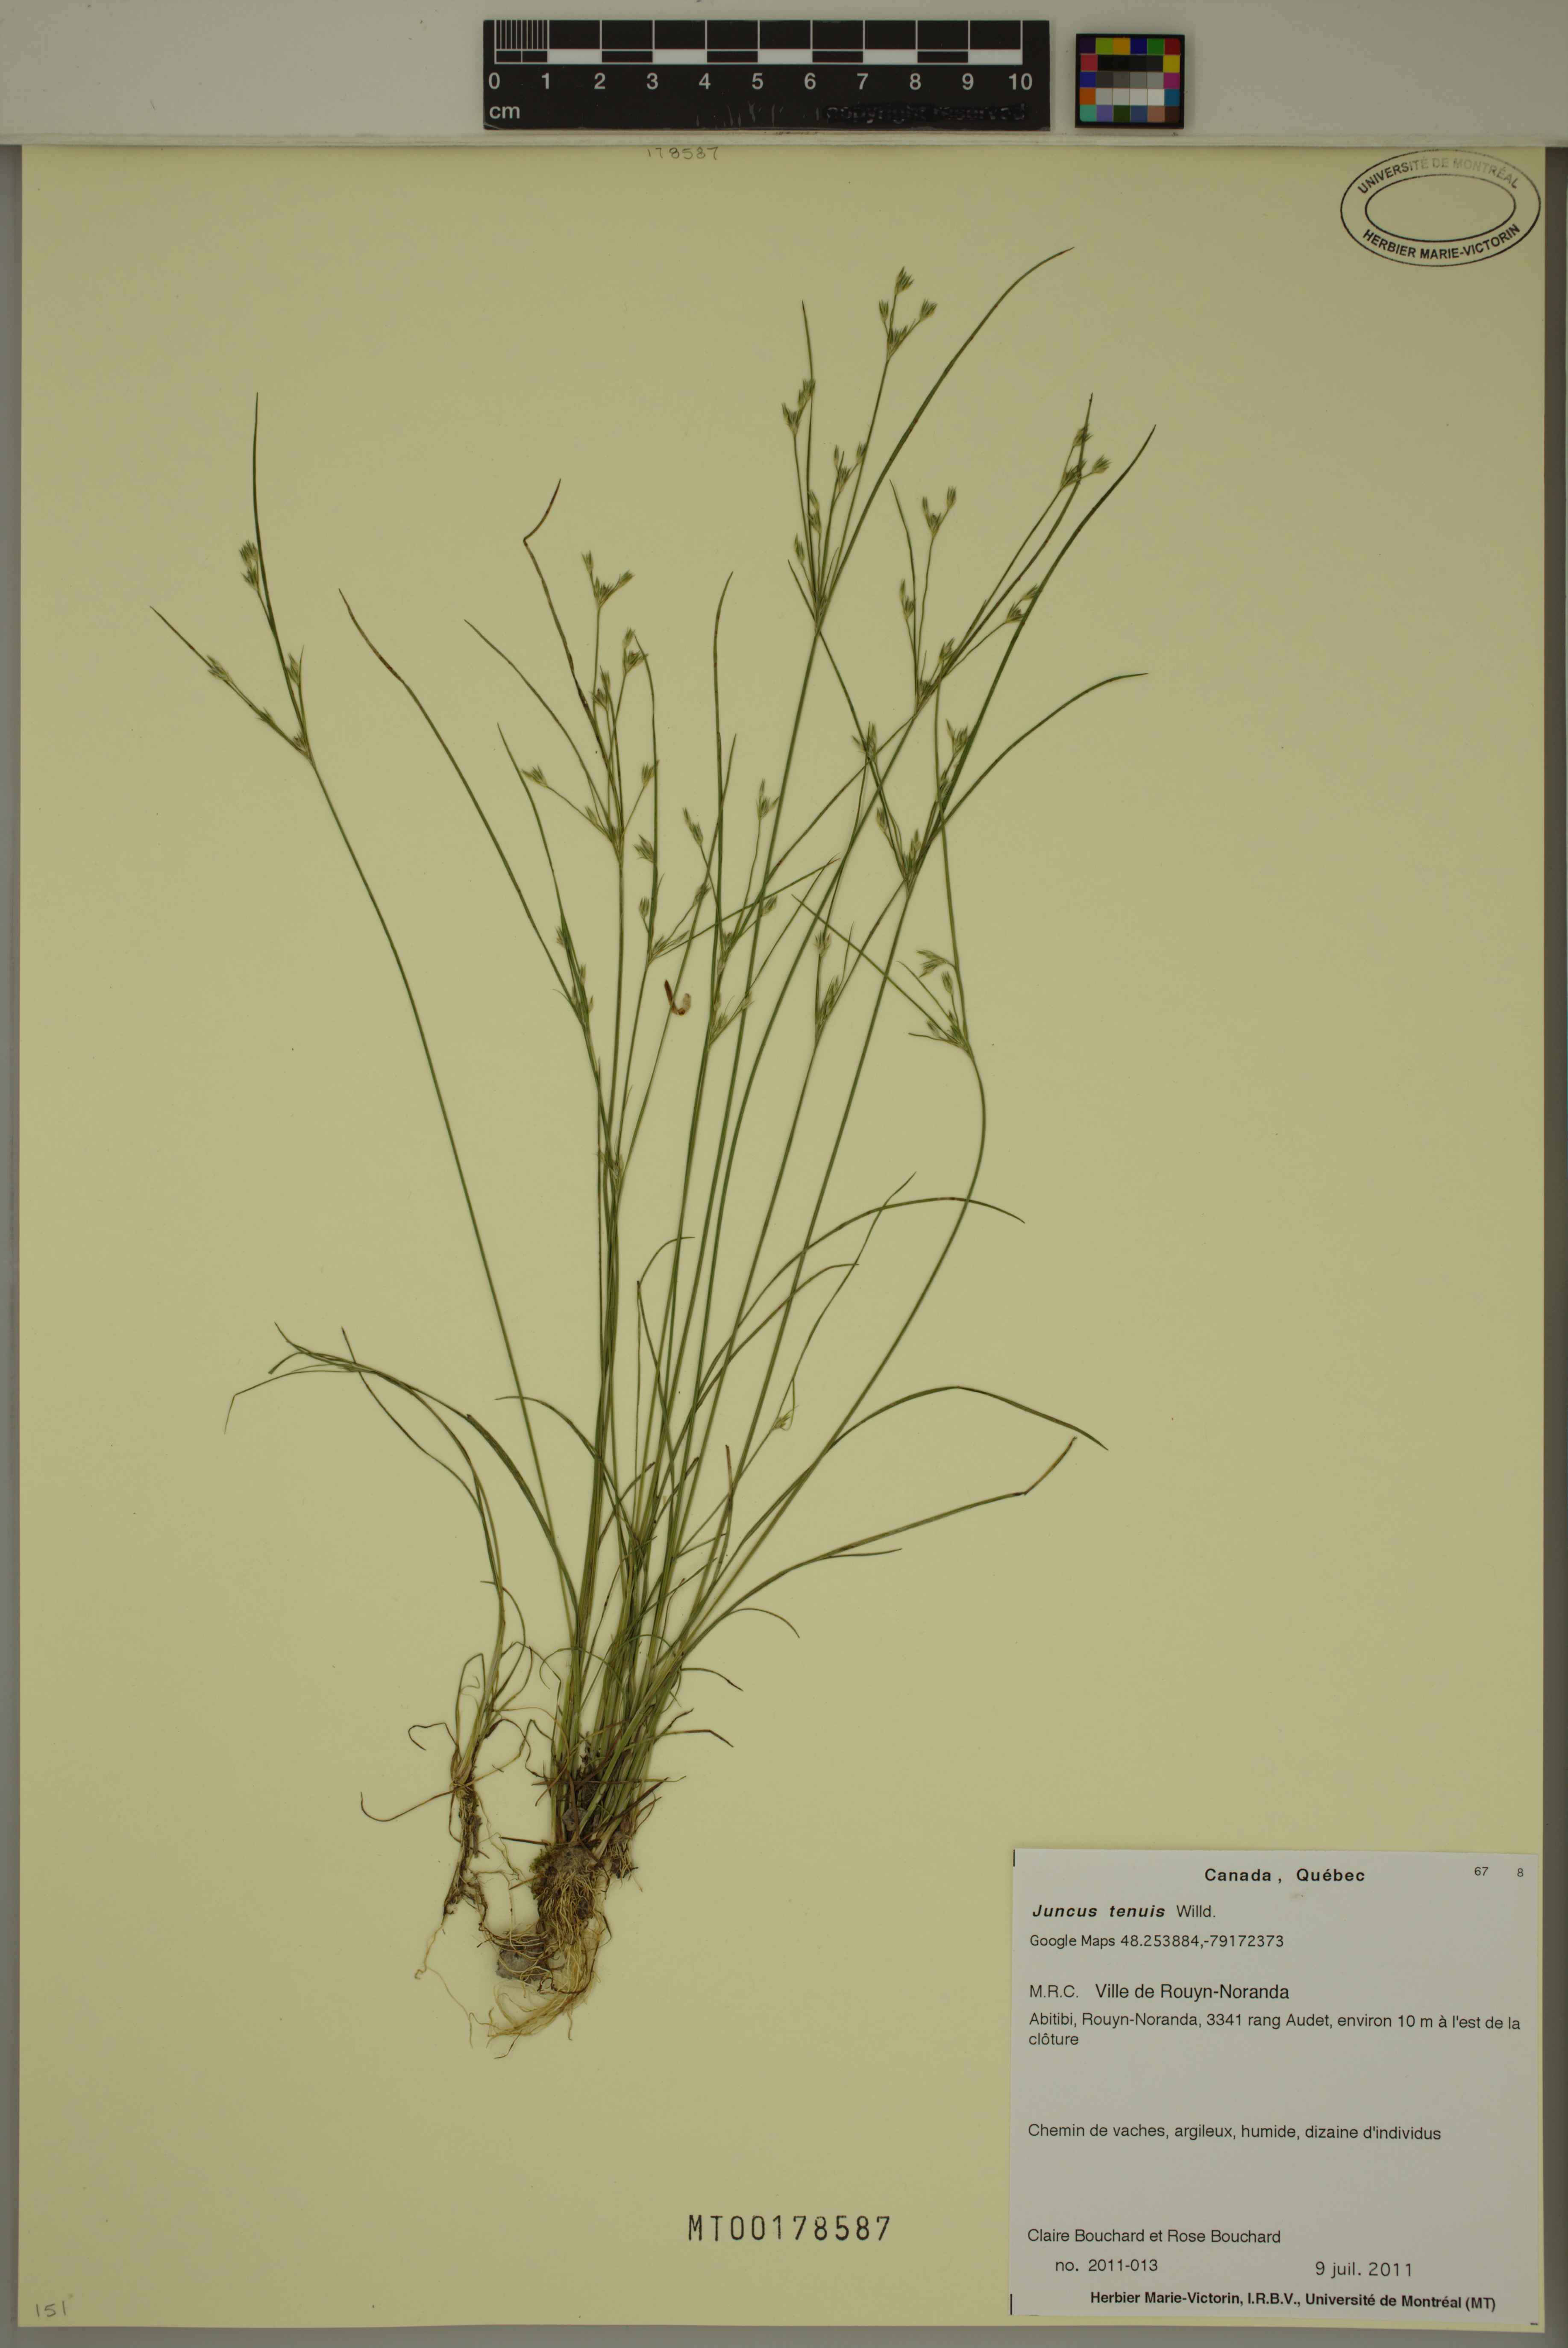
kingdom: Plantae
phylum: Tracheophyta
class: Liliopsida
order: Poales
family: Juncaceae
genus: Juncus
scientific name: Juncus tenuis
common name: Slender rush
